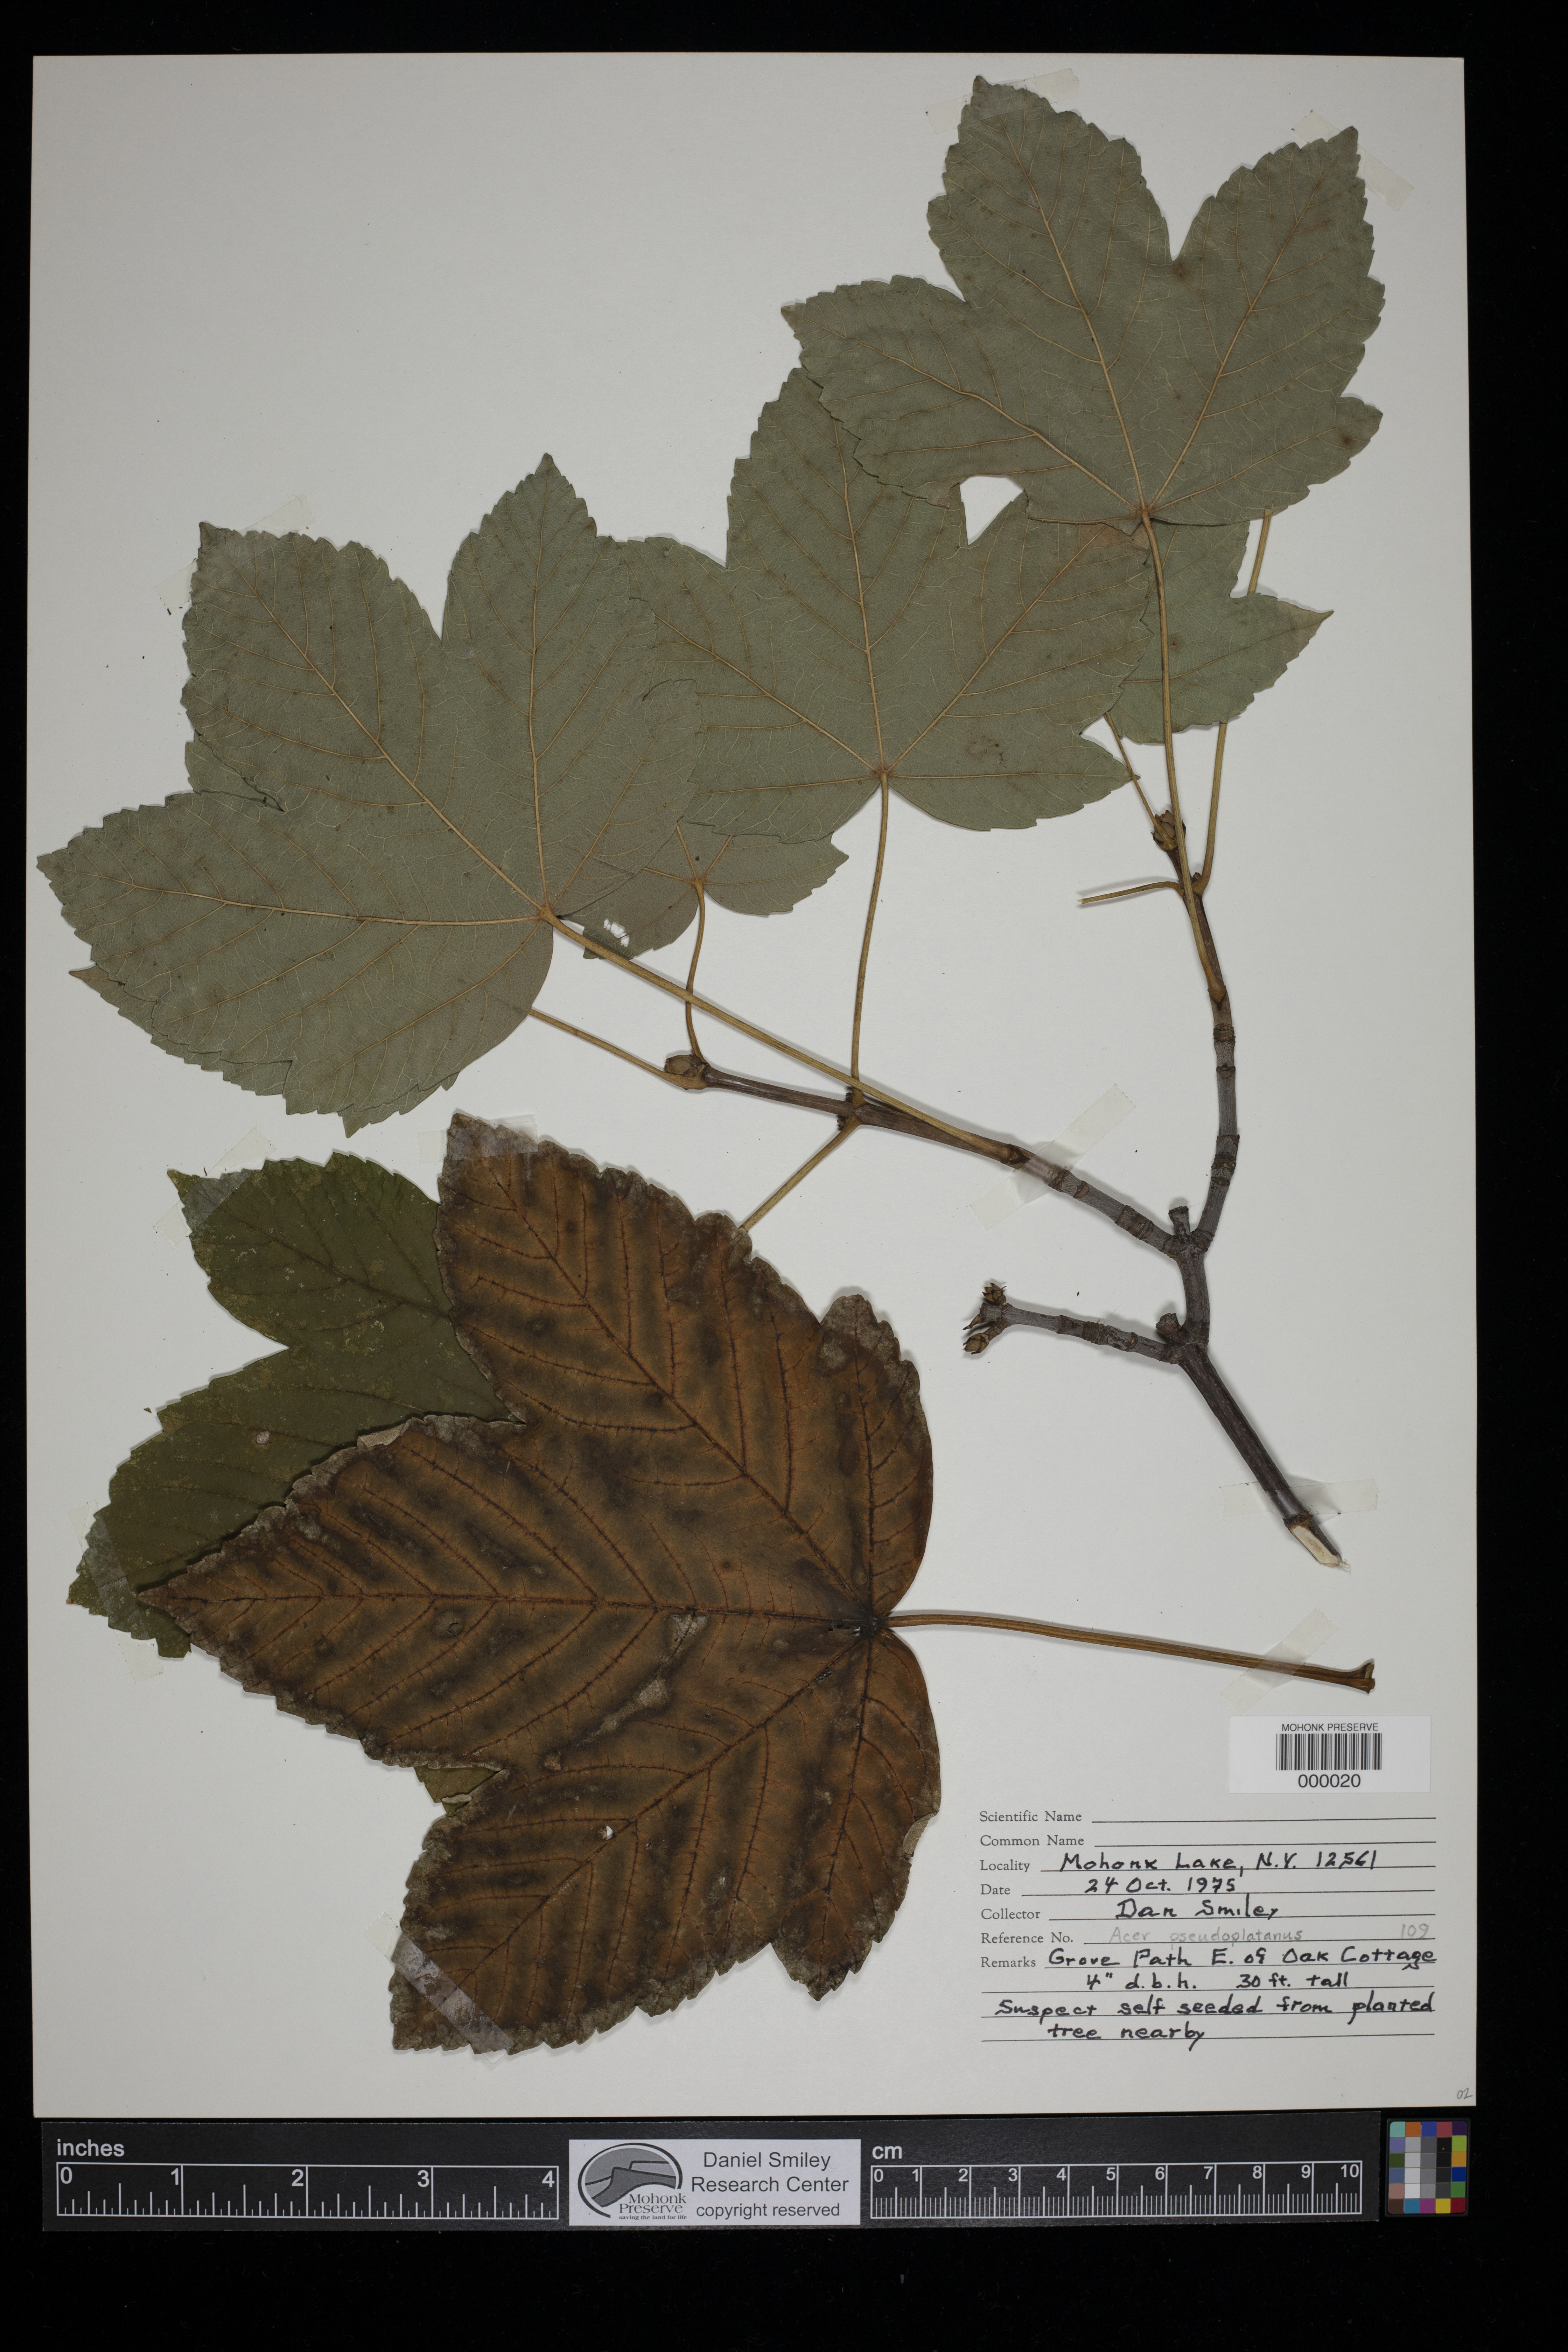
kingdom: Plantae
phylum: Tracheophyta
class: Magnoliopsida
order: Sapindales
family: Sapindaceae
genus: Acer
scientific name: Acer pseudoplatanus
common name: Sycamore
